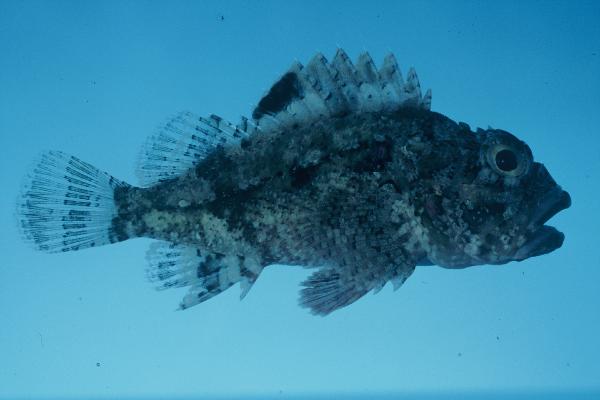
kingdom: Animalia
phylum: Chordata
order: Scorpaeniformes
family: Scorpaenidae
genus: Sebastapistes
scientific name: Sebastapistes mauritiana
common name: Spineblotch scorpionfish
